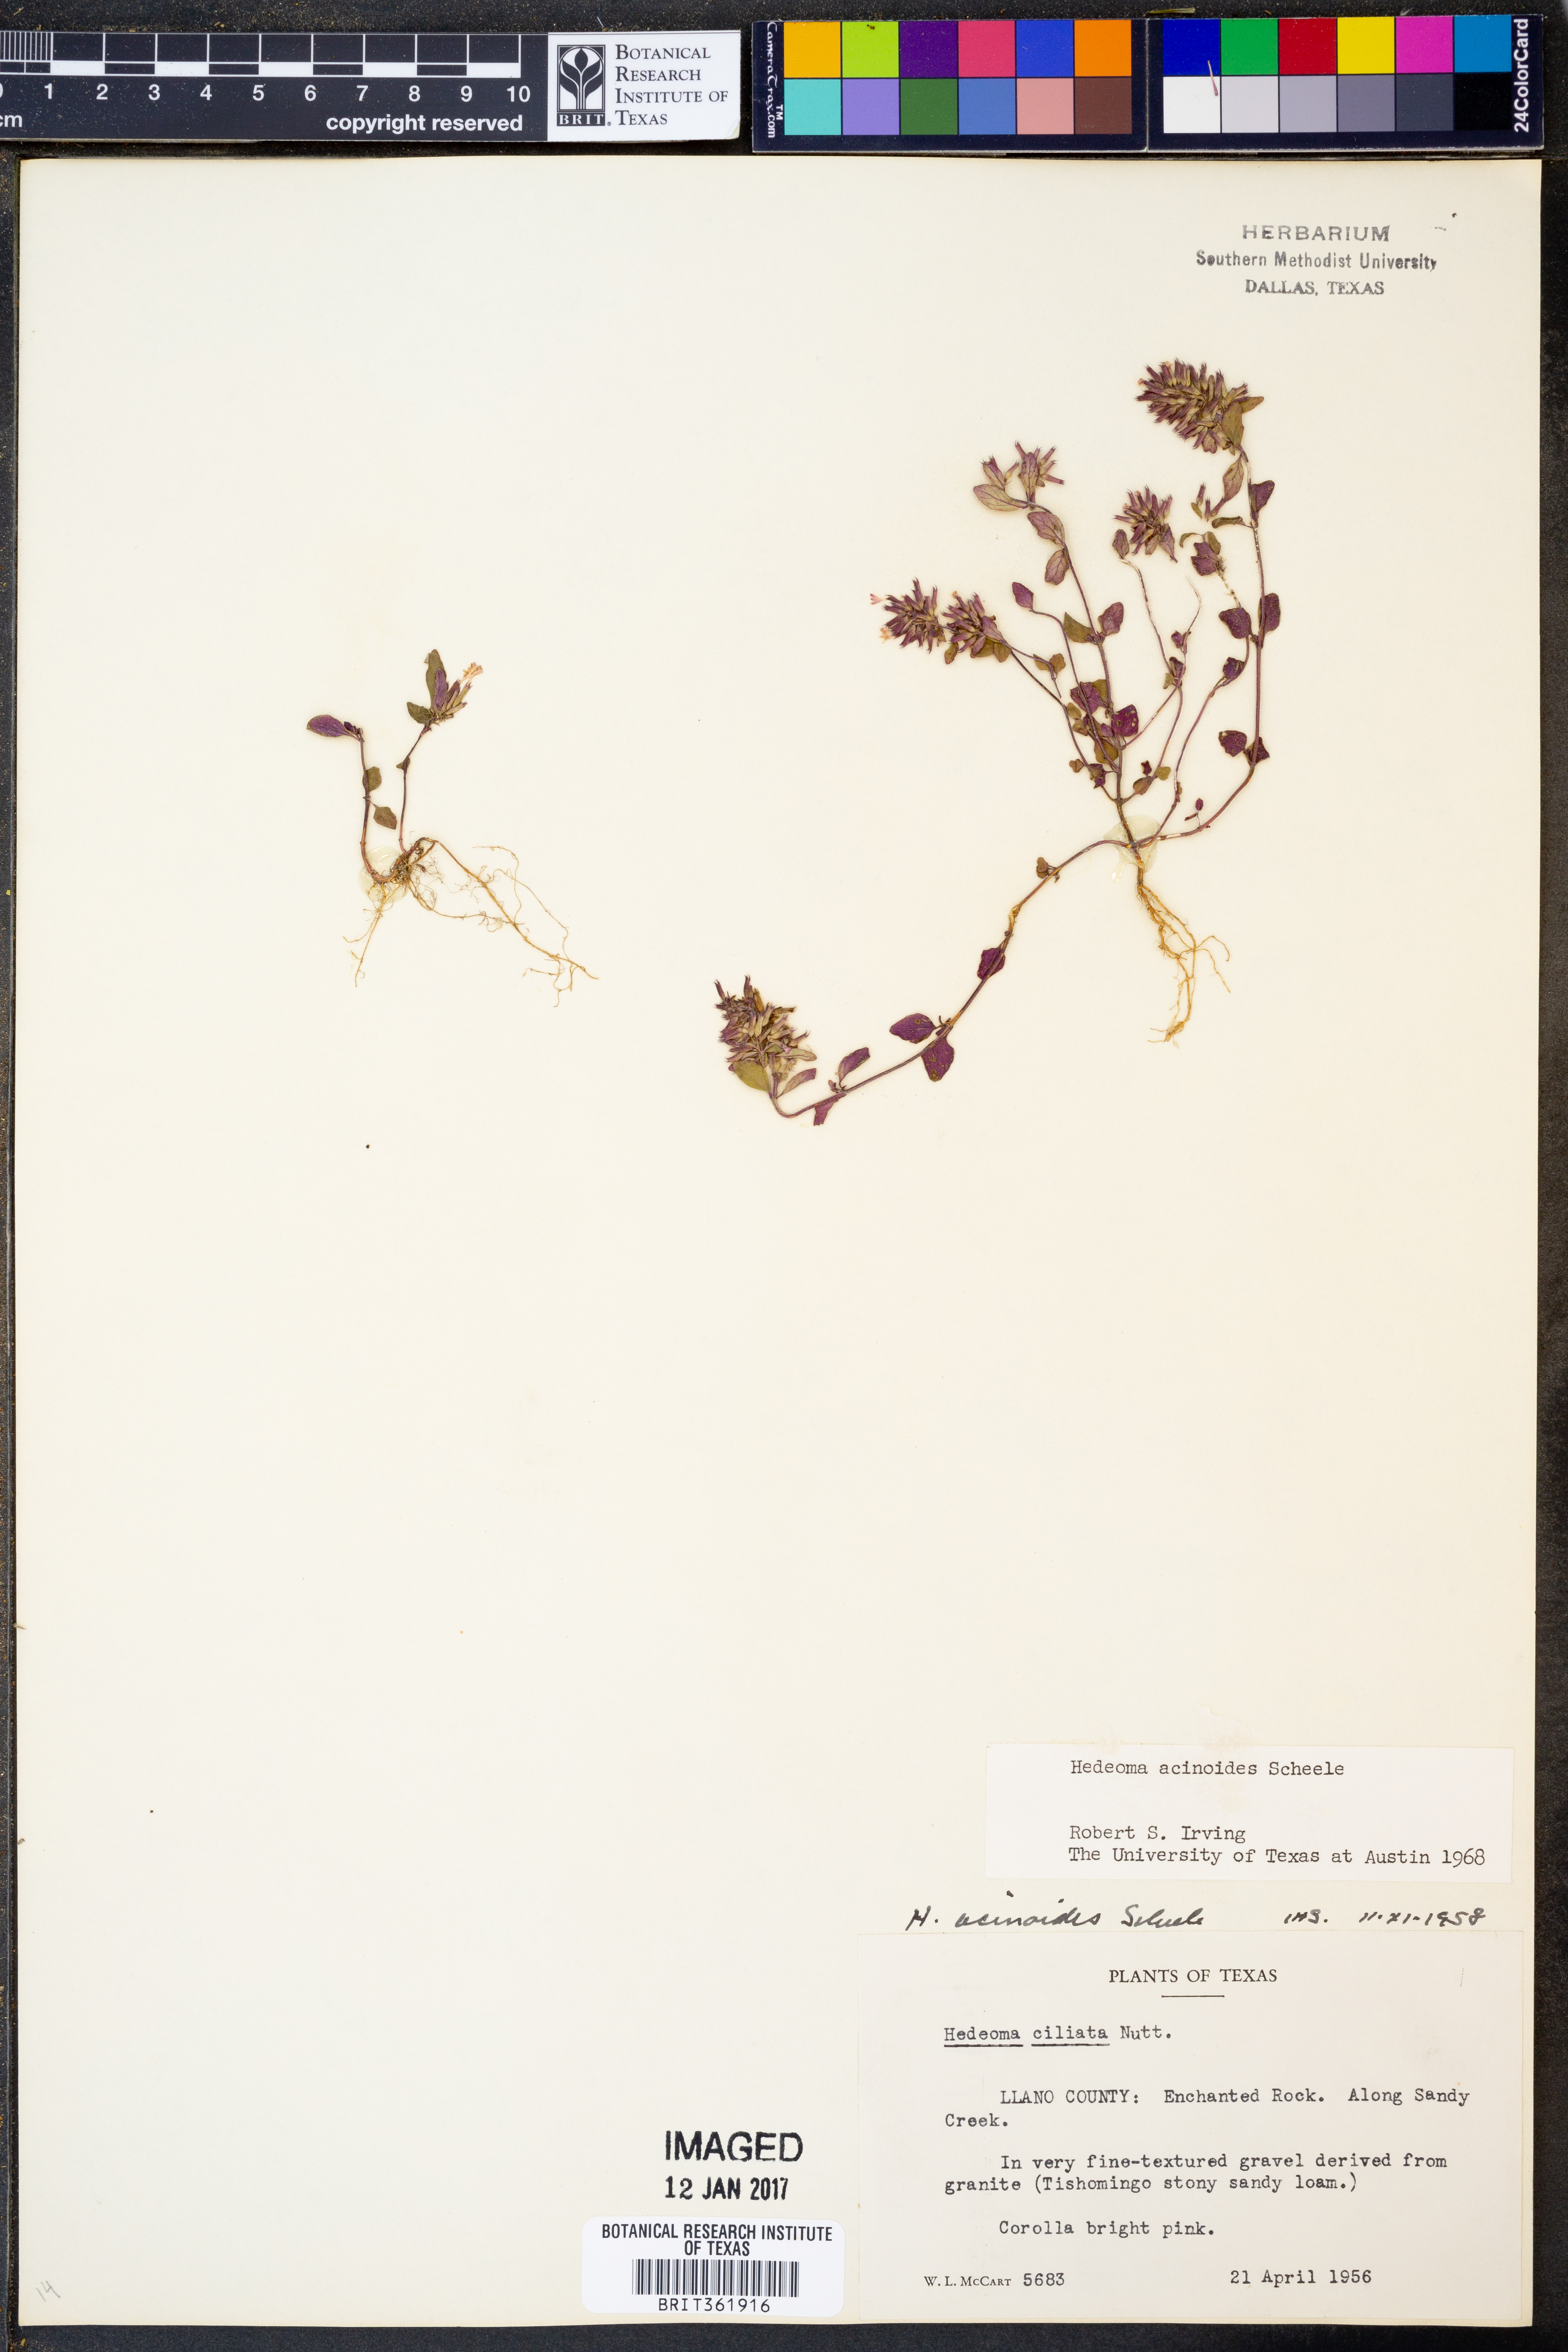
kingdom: Plantae
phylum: Tracheophyta
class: Magnoliopsida
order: Lamiales
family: Lamiaceae
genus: Hedeoma
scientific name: Hedeoma acinoides
